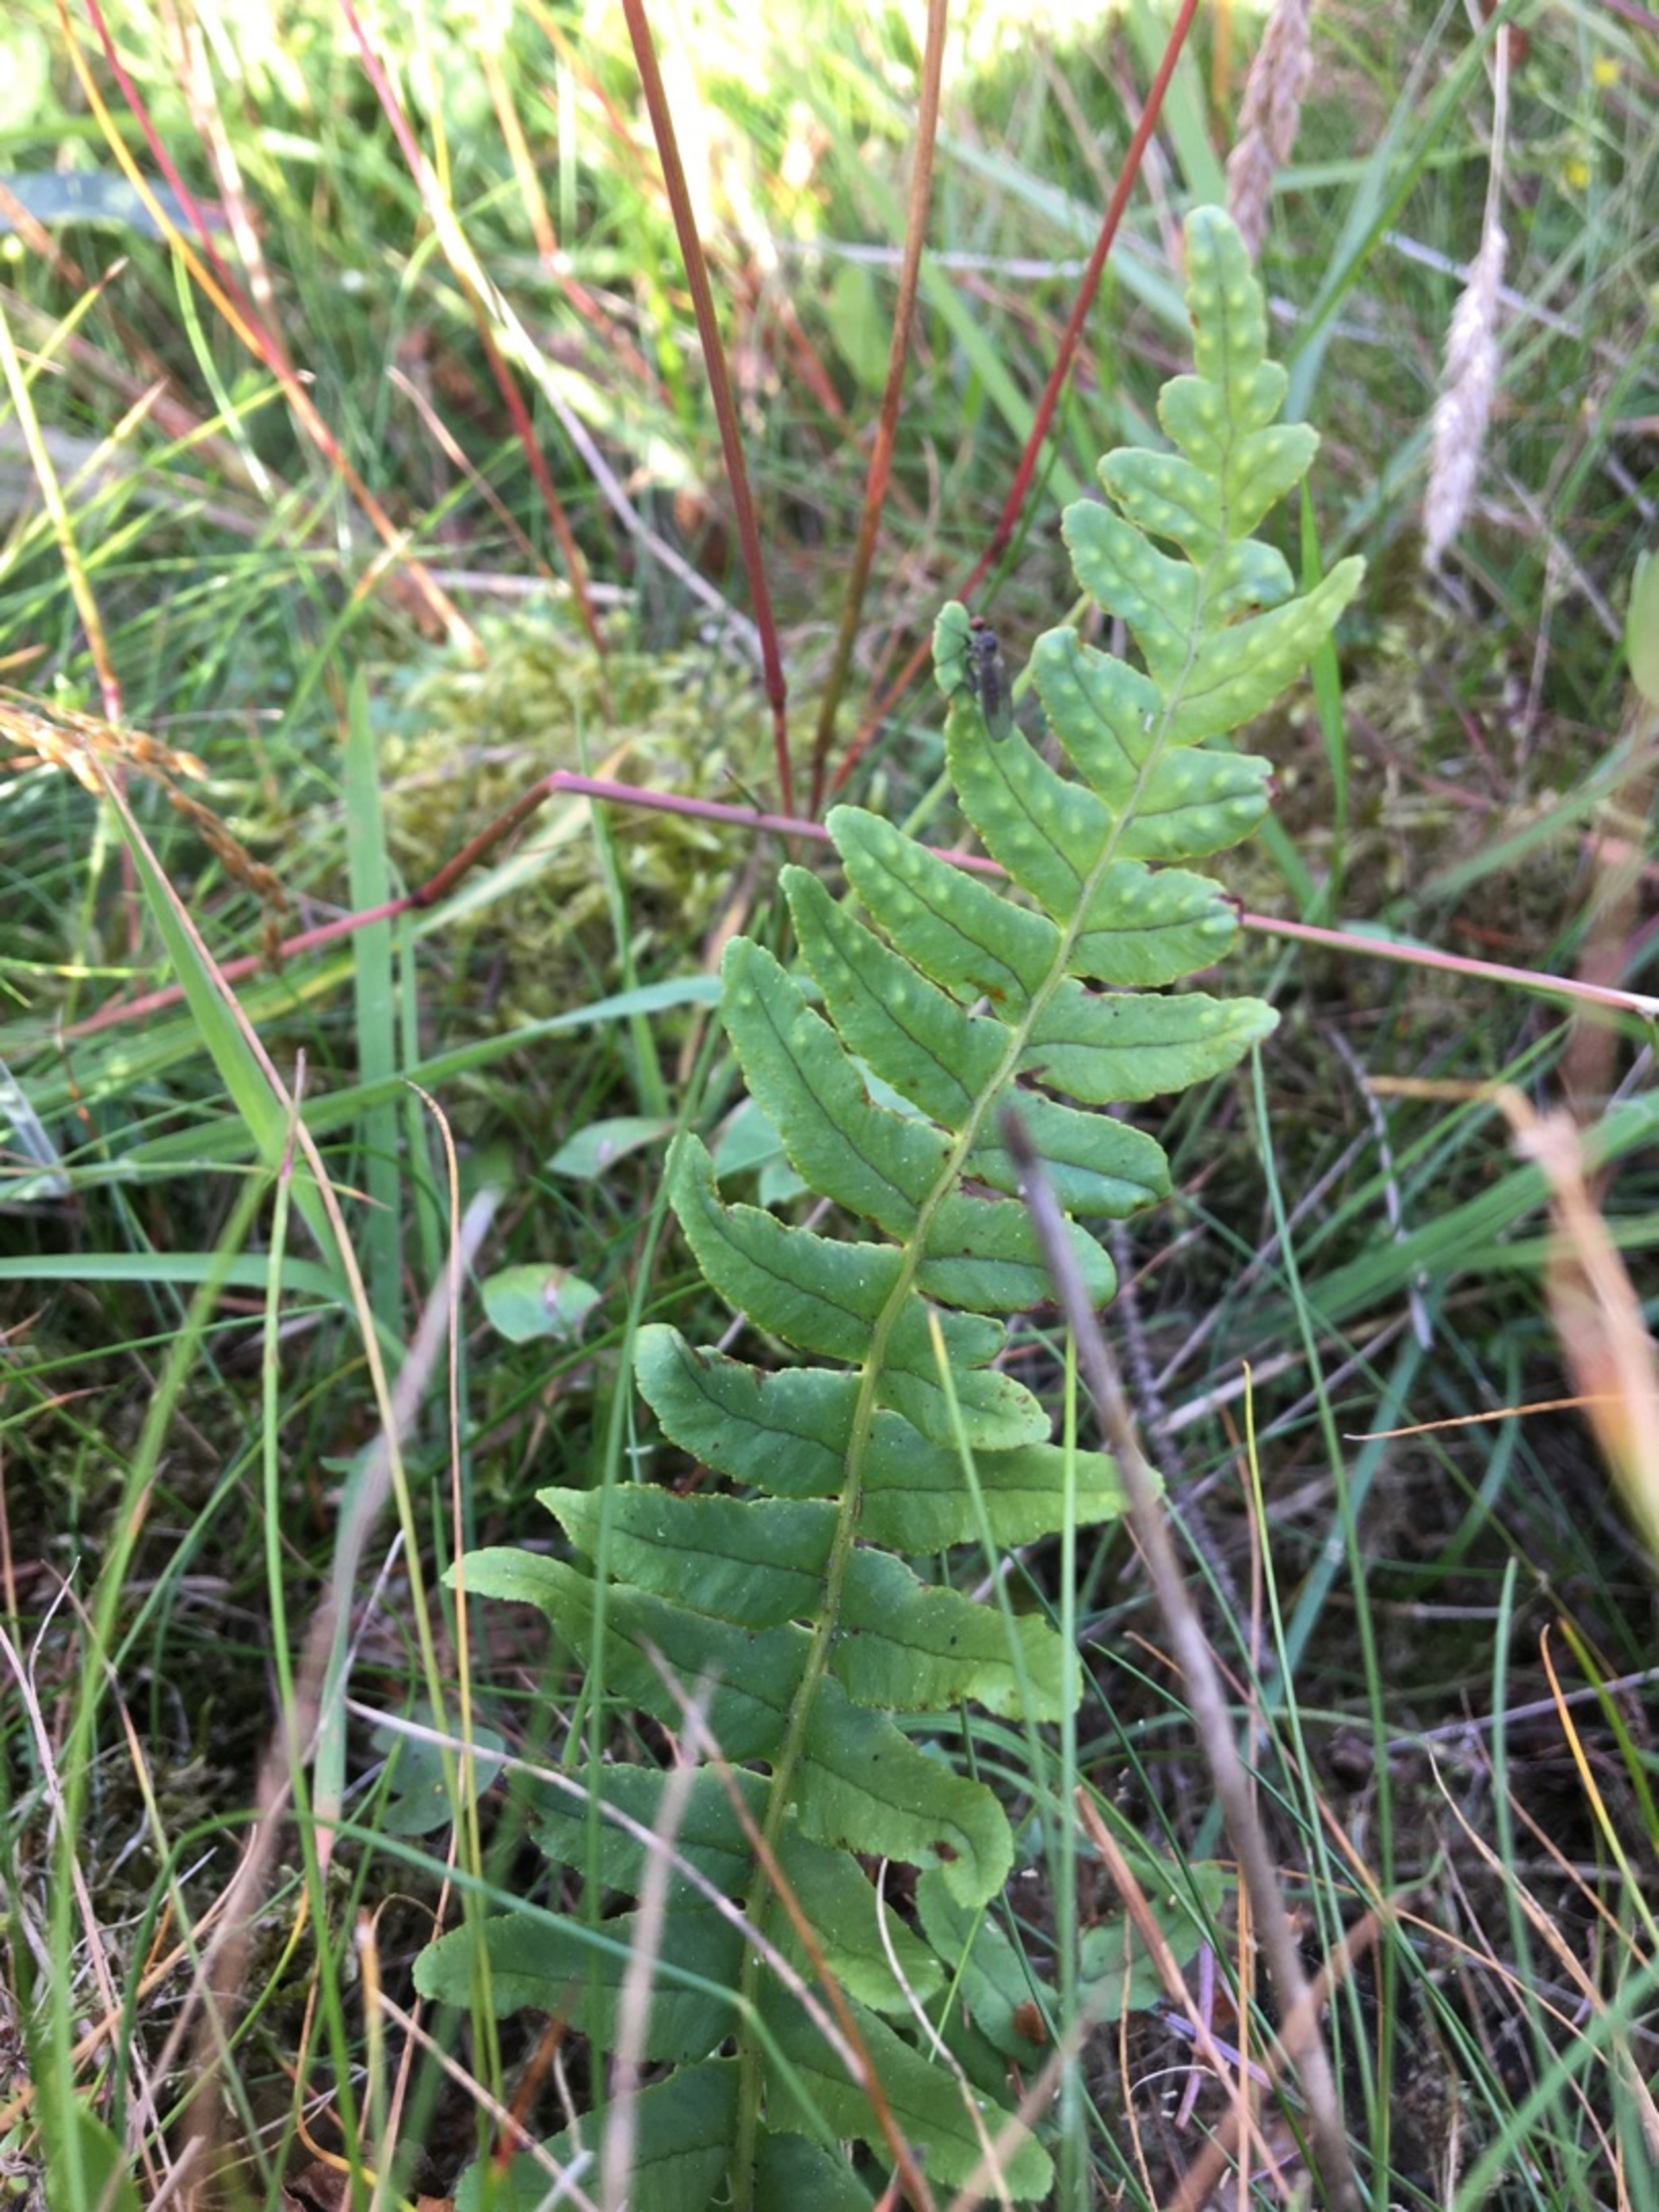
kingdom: Plantae
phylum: Tracheophyta
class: Polypodiopsida
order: Polypodiales
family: Polypodiaceae
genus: Polypodium
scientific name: Polypodium vulgare
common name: Almindelig engelsød
